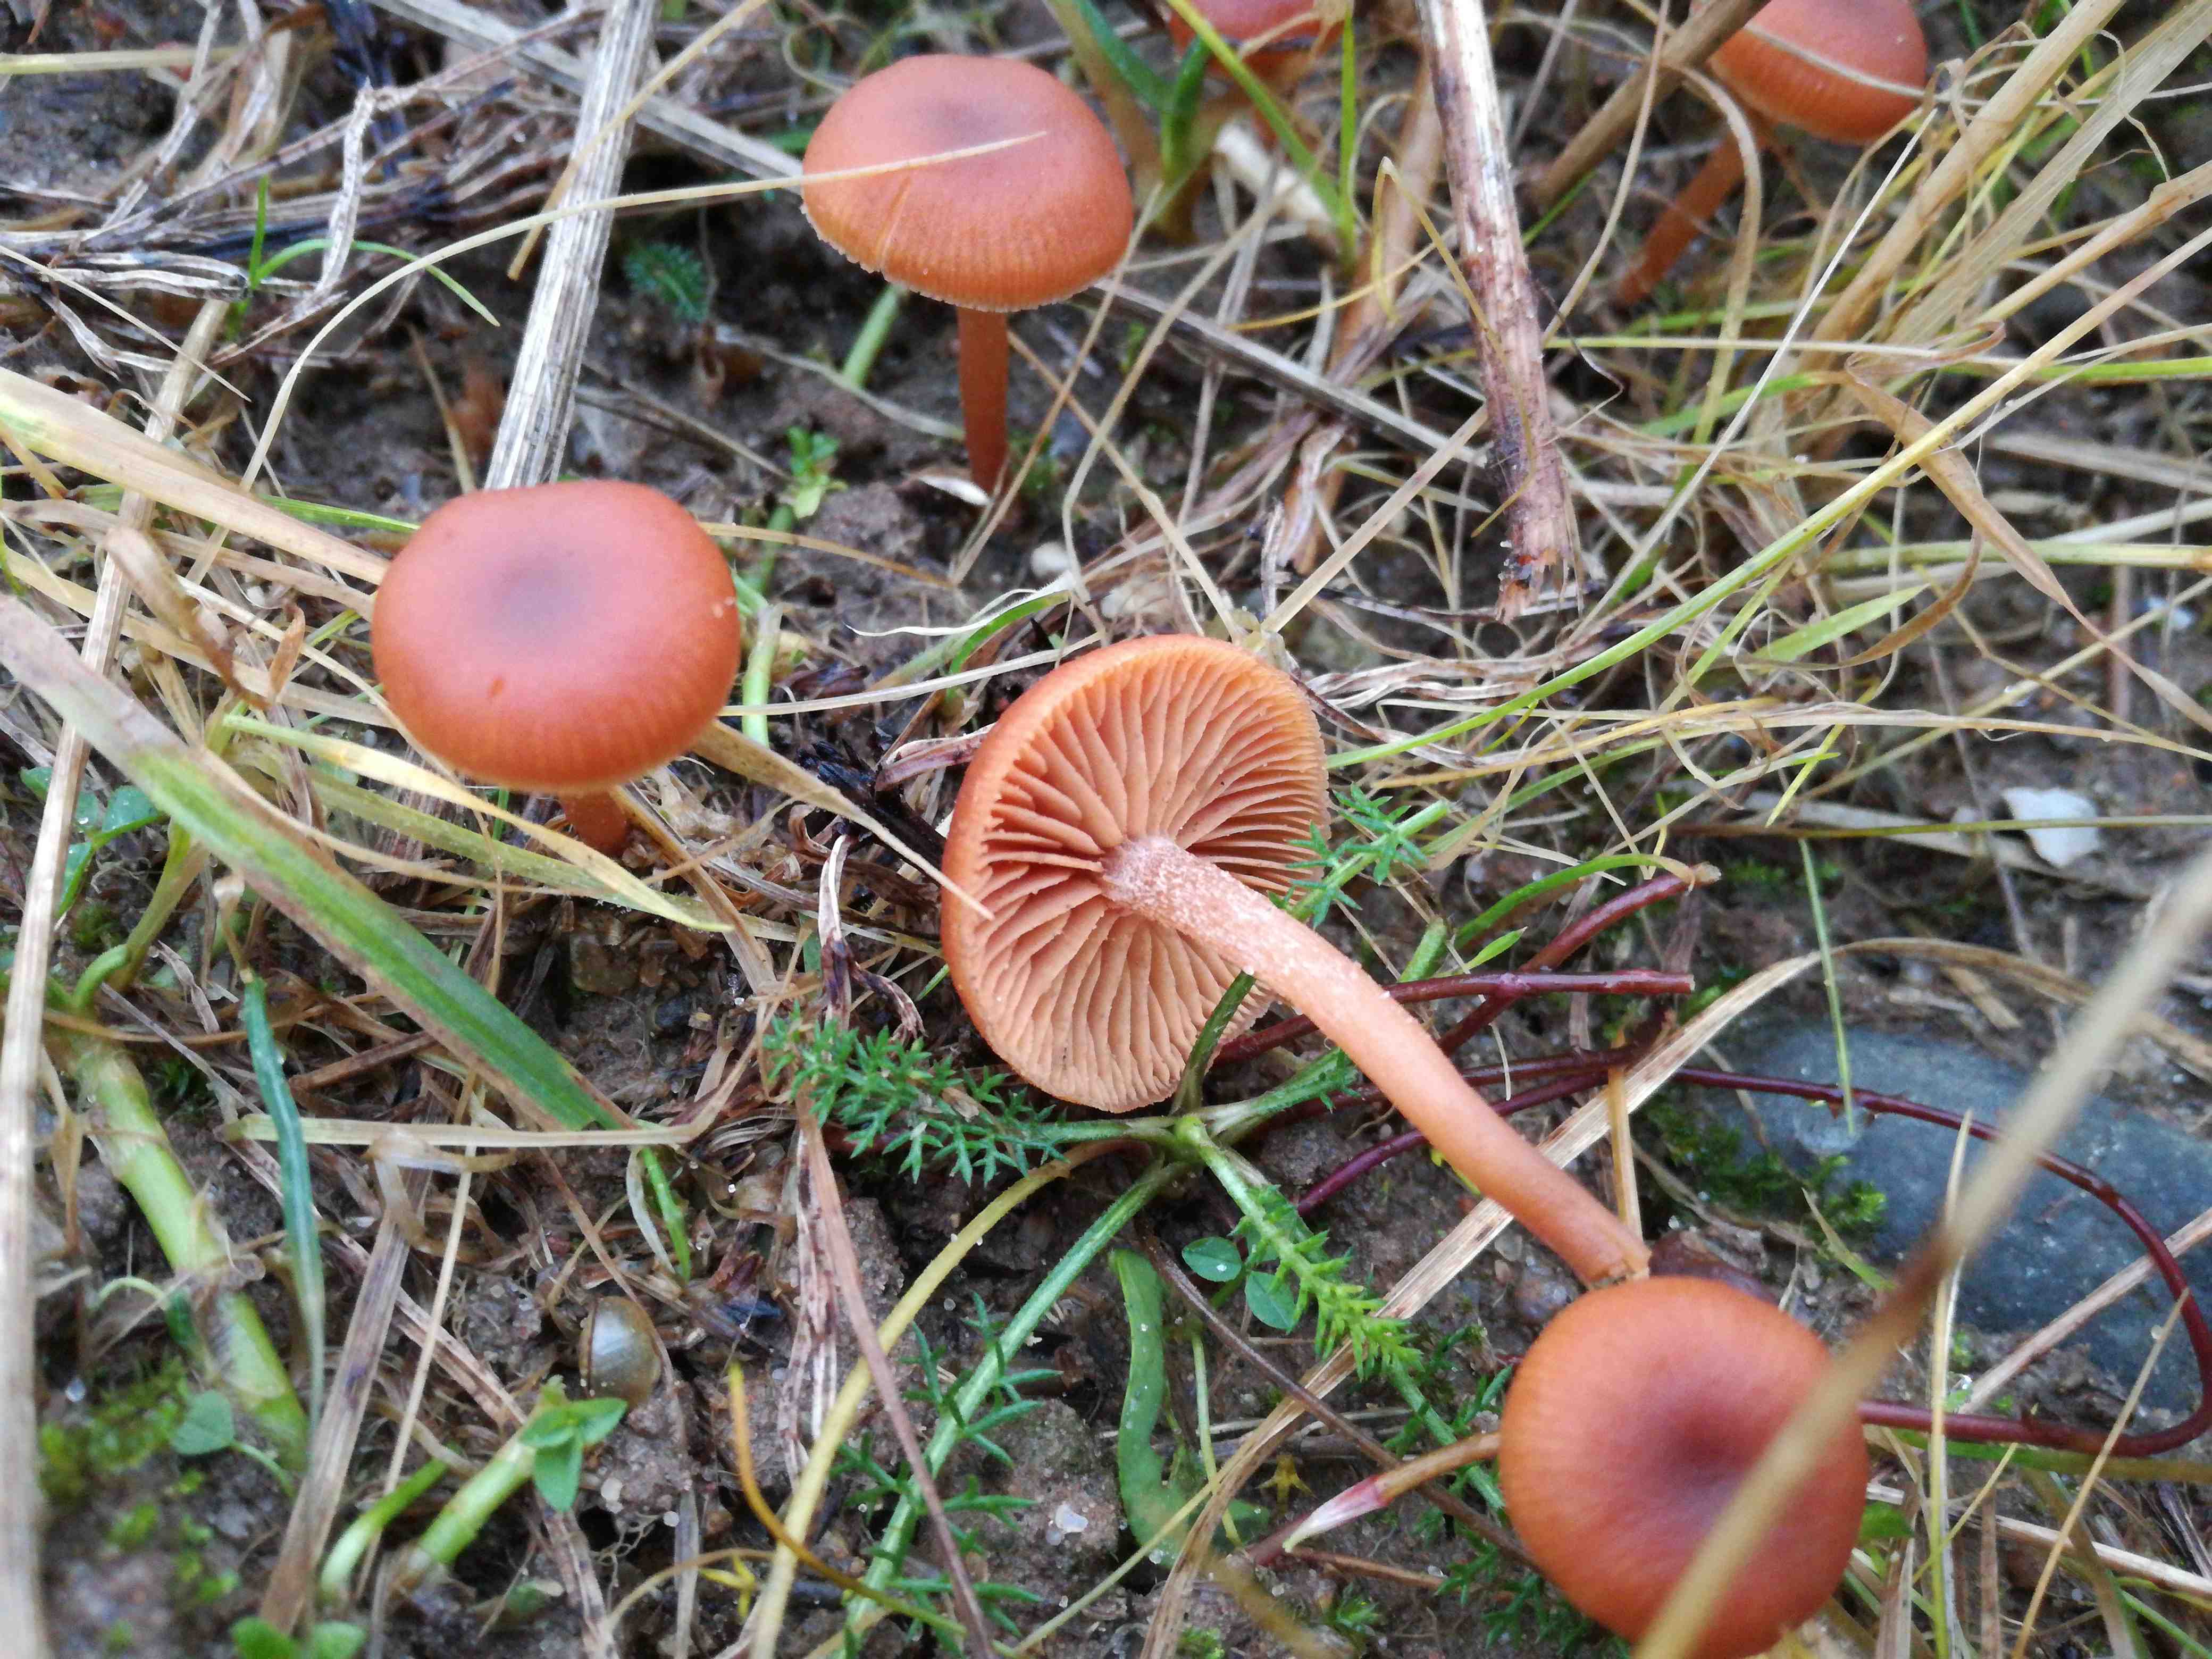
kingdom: Fungi
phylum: Basidiomycota
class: Agaricomycetes
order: Agaricales
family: Tubariaceae
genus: Tubaria
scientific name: Tubaria furfuracea
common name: kliddet fnughat
